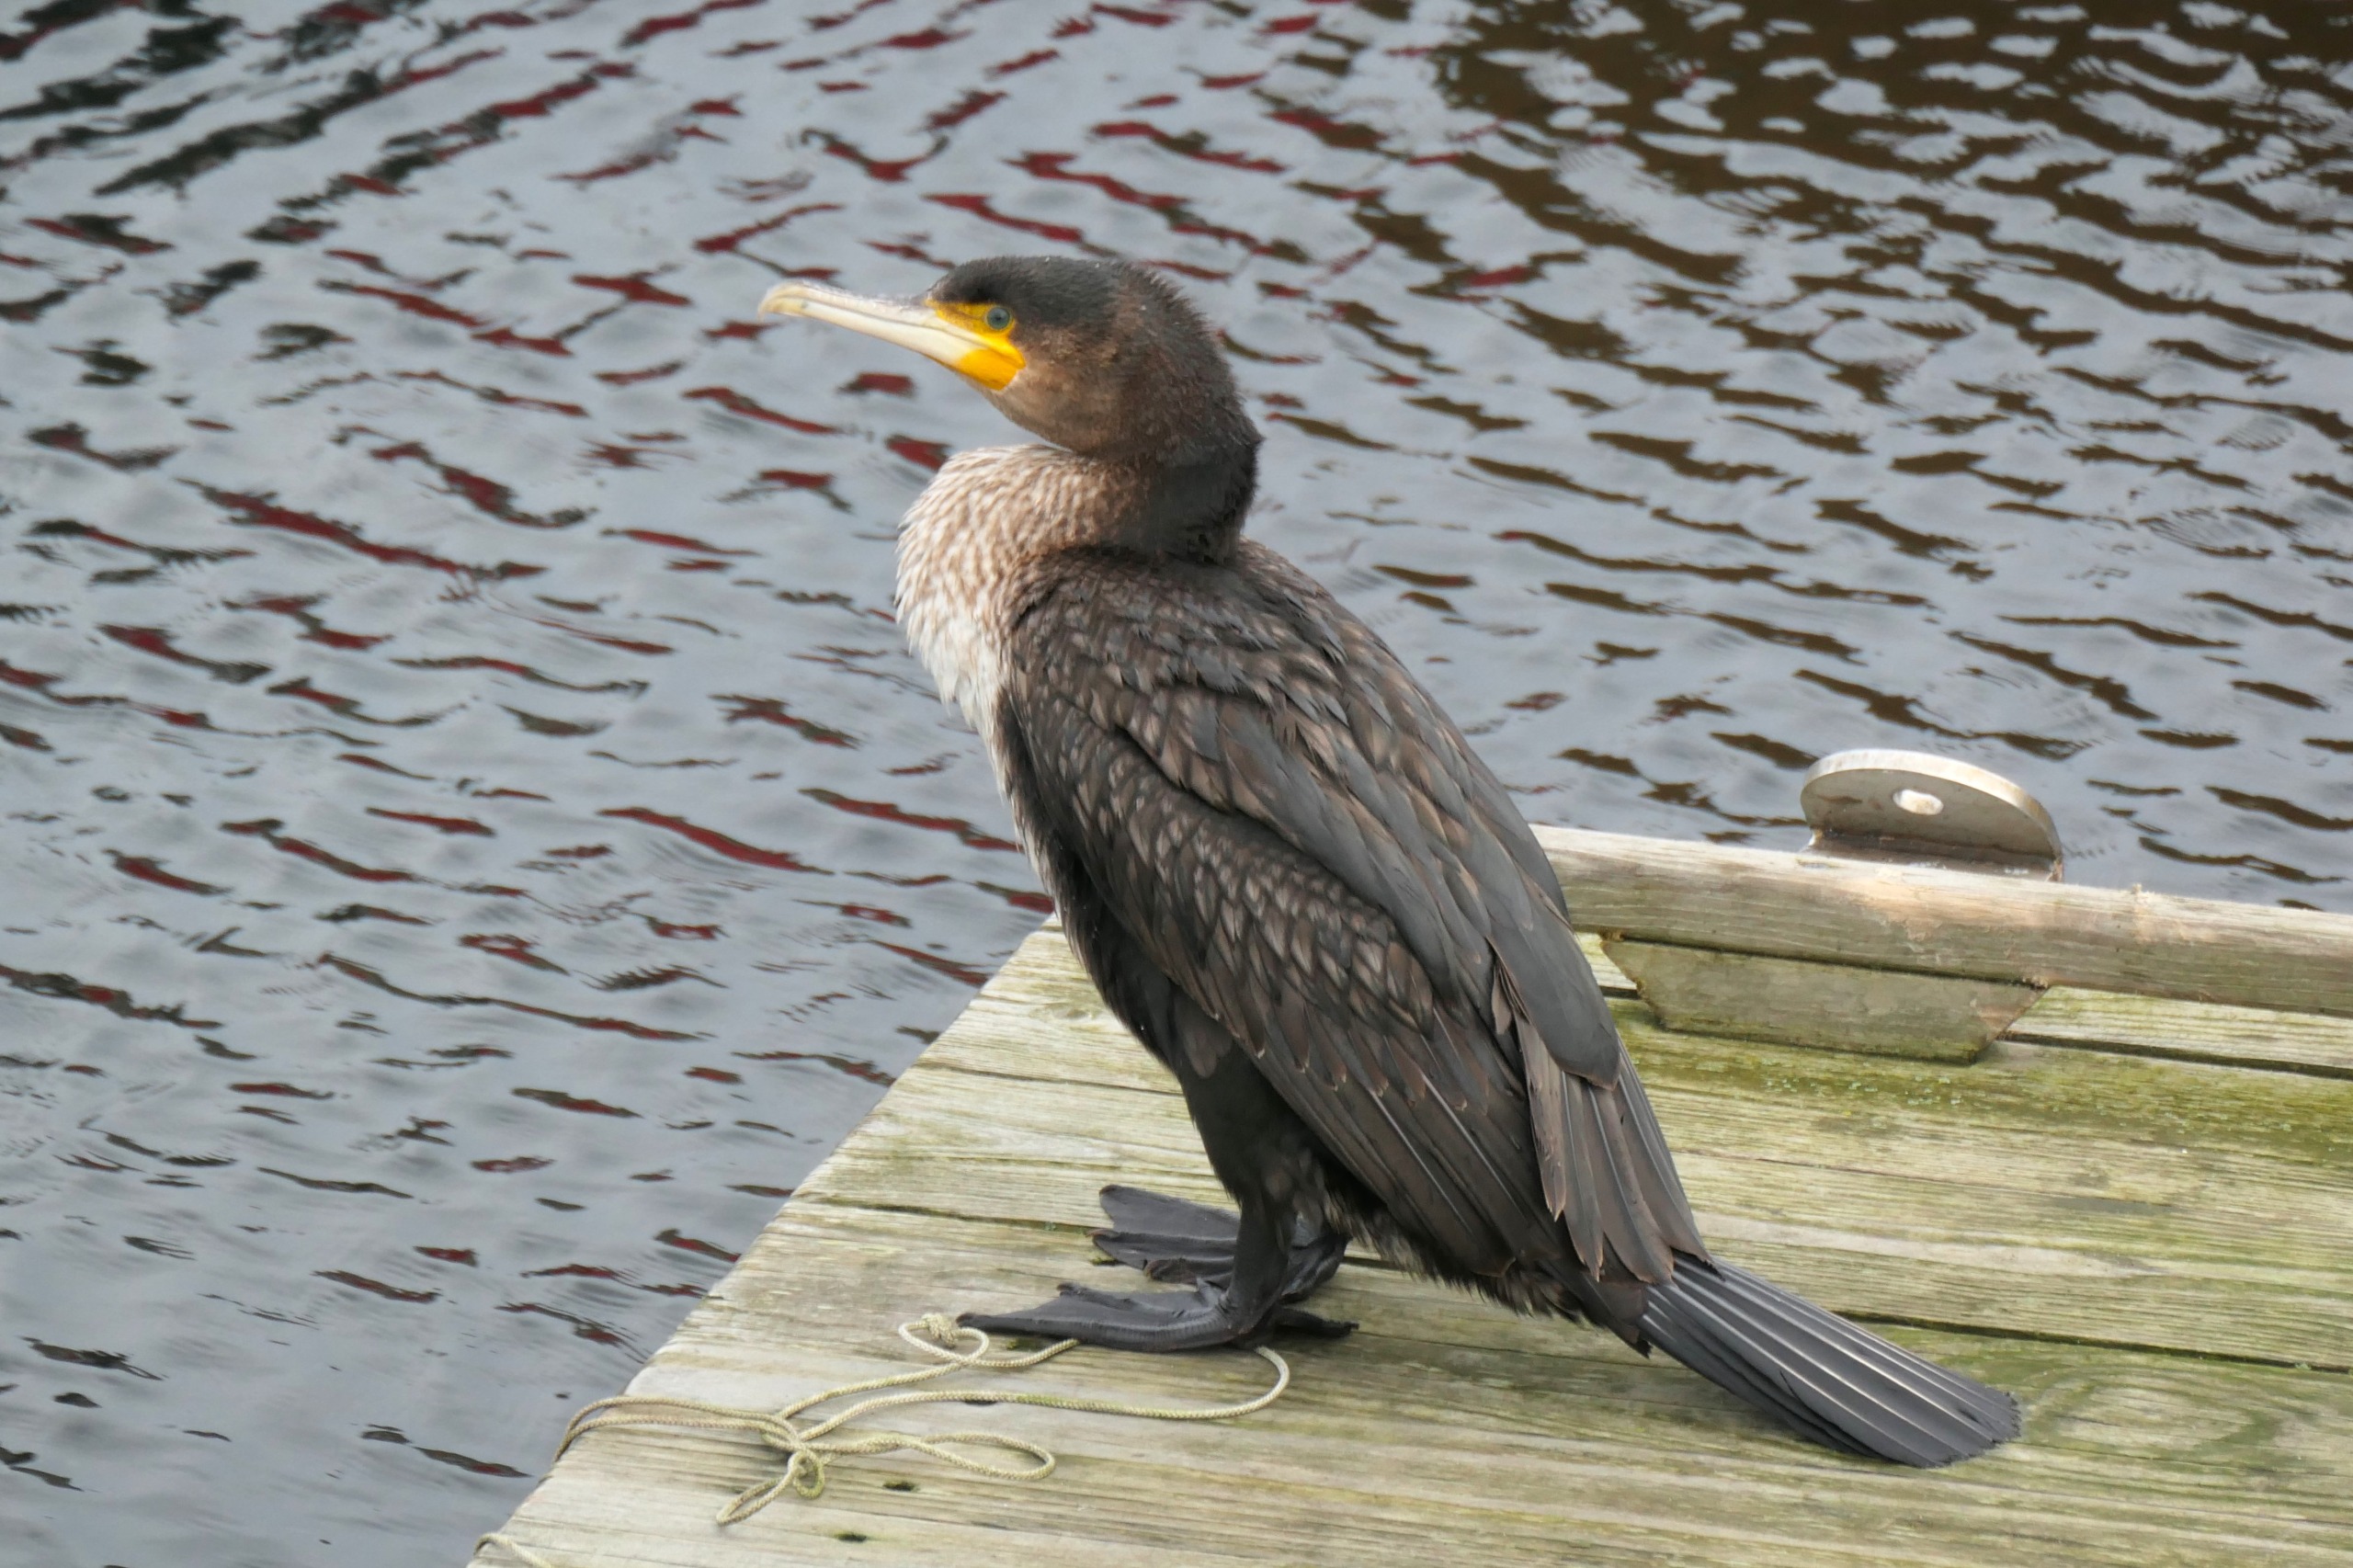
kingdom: Animalia
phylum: Chordata
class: Aves
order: Suliformes
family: Phalacrocoracidae
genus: Phalacrocorax
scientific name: Phalacrocorax carbo
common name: Skarv
